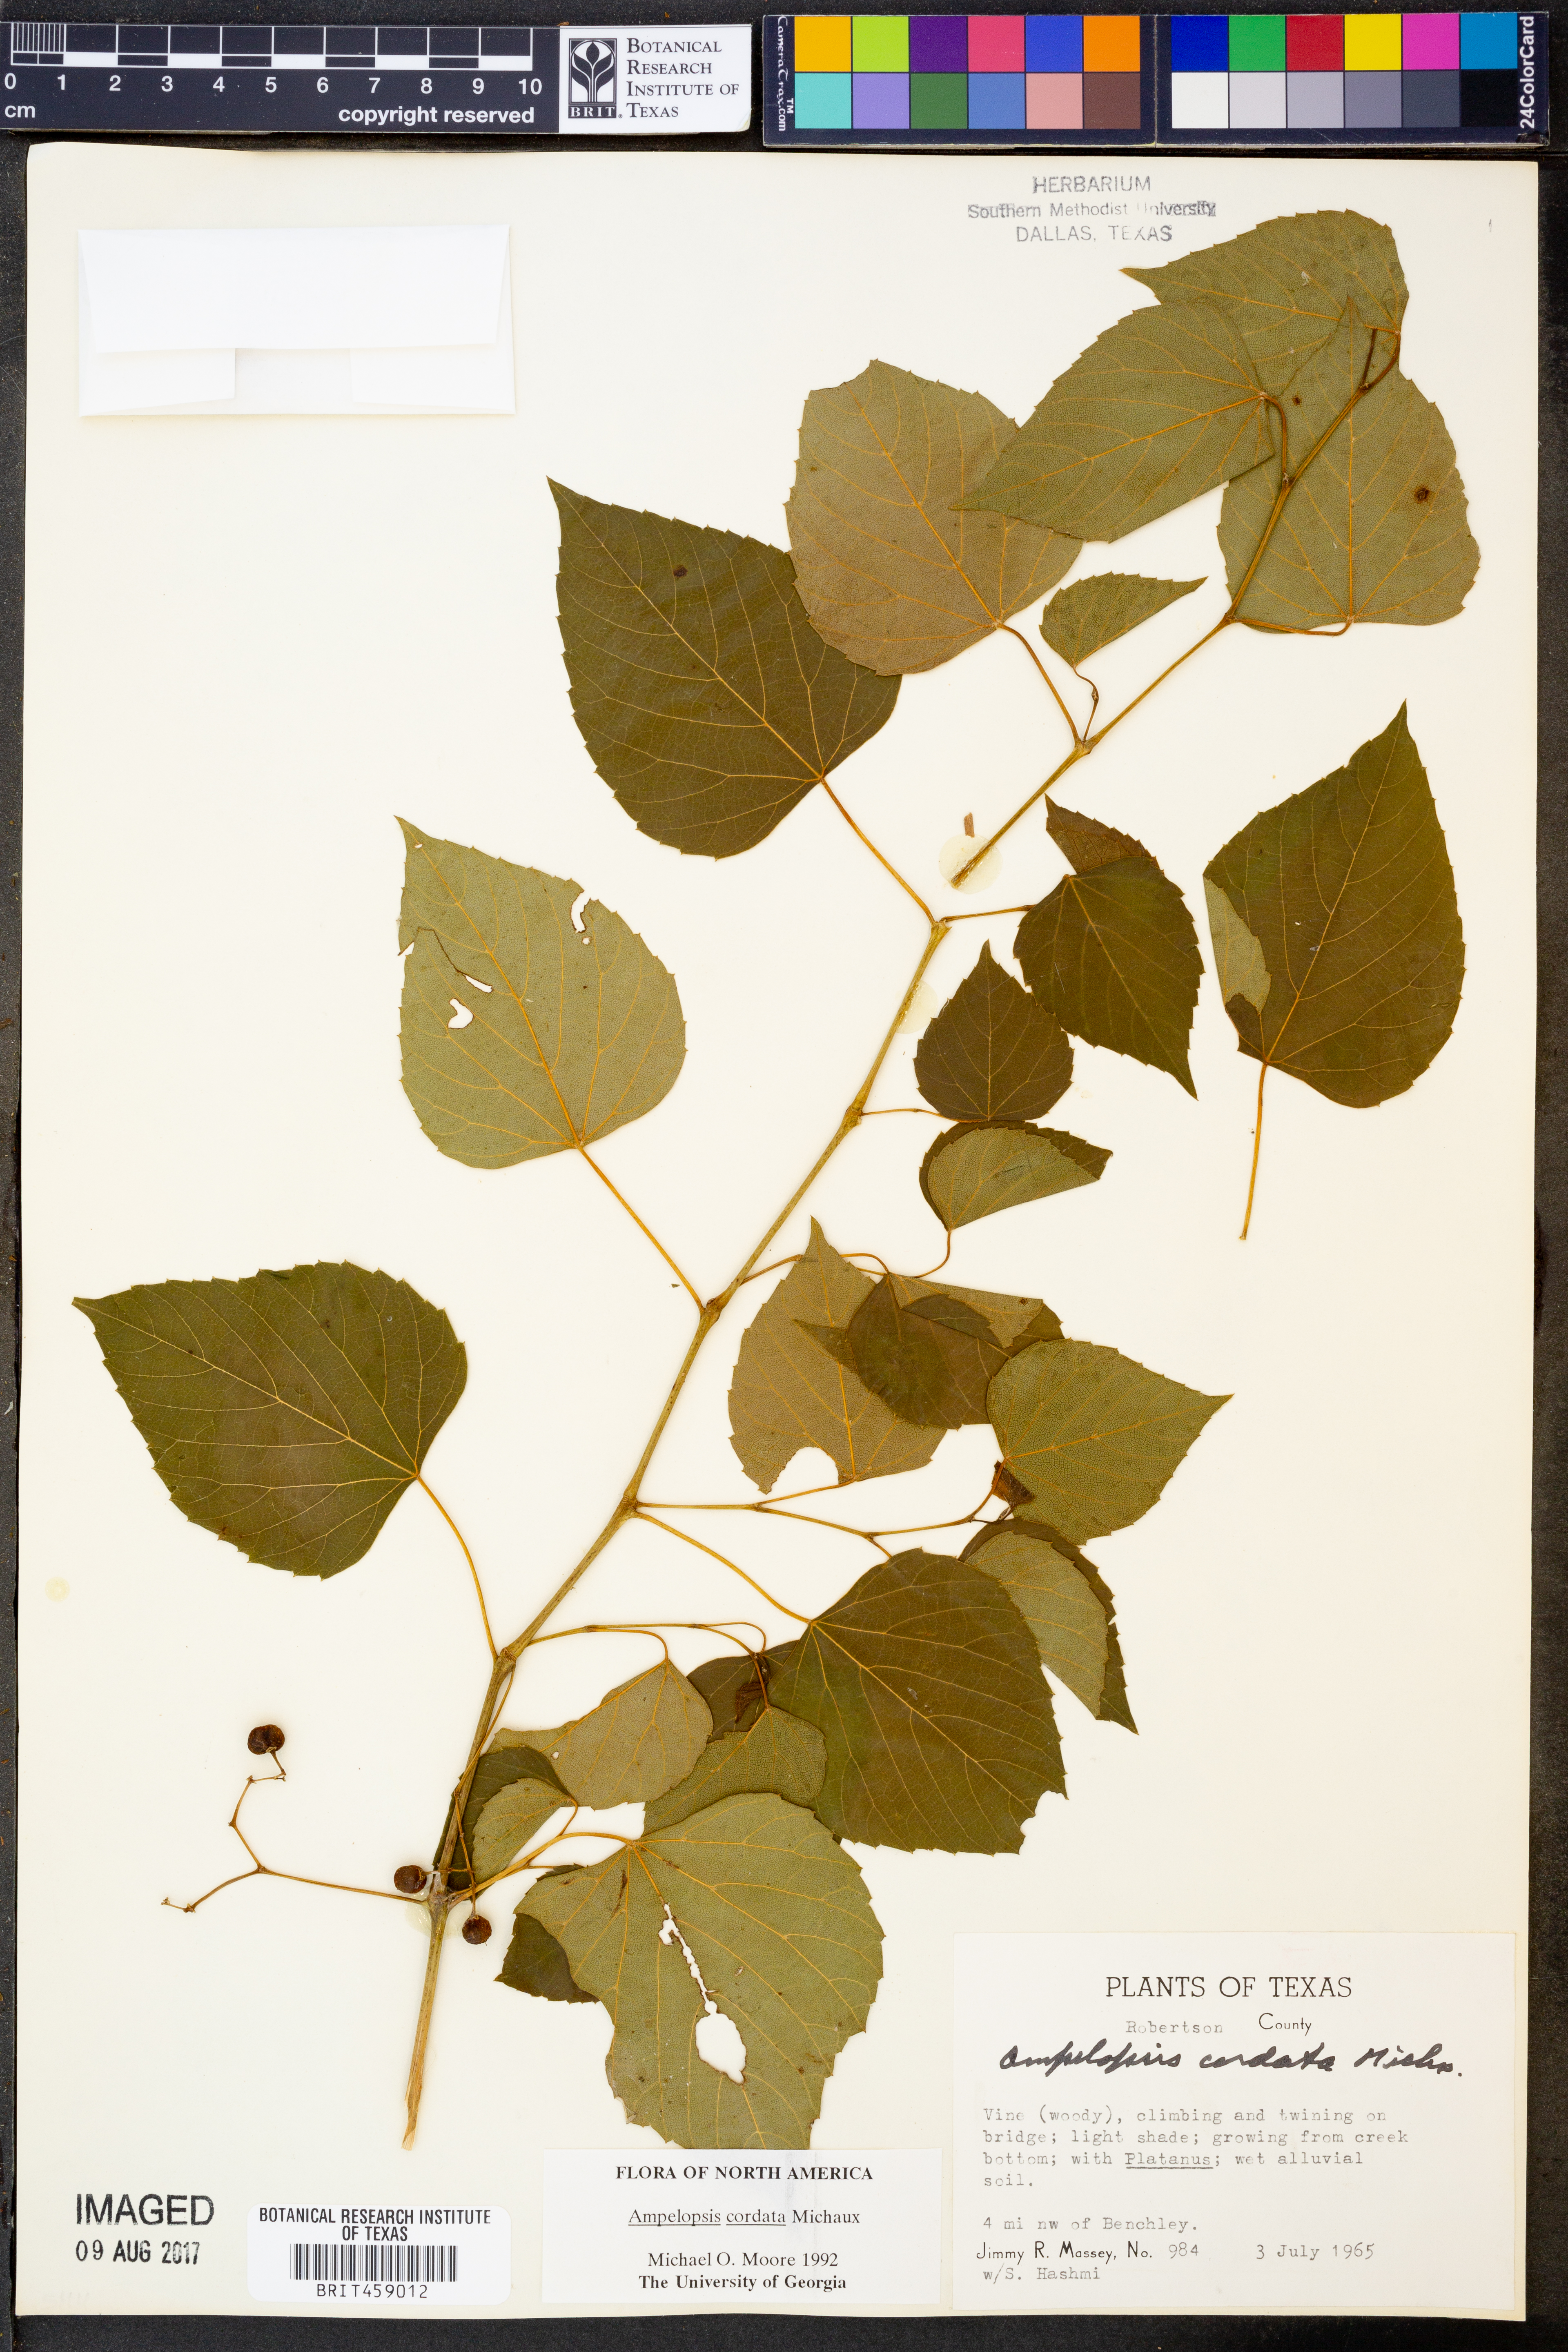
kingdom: Plantae
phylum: Tracheophyta
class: Magnoliopsida
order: Vitales
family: Vitaceae
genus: Ampelopsis
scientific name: Ampelopsis cordata
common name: Heart-leaf ampelopsis
